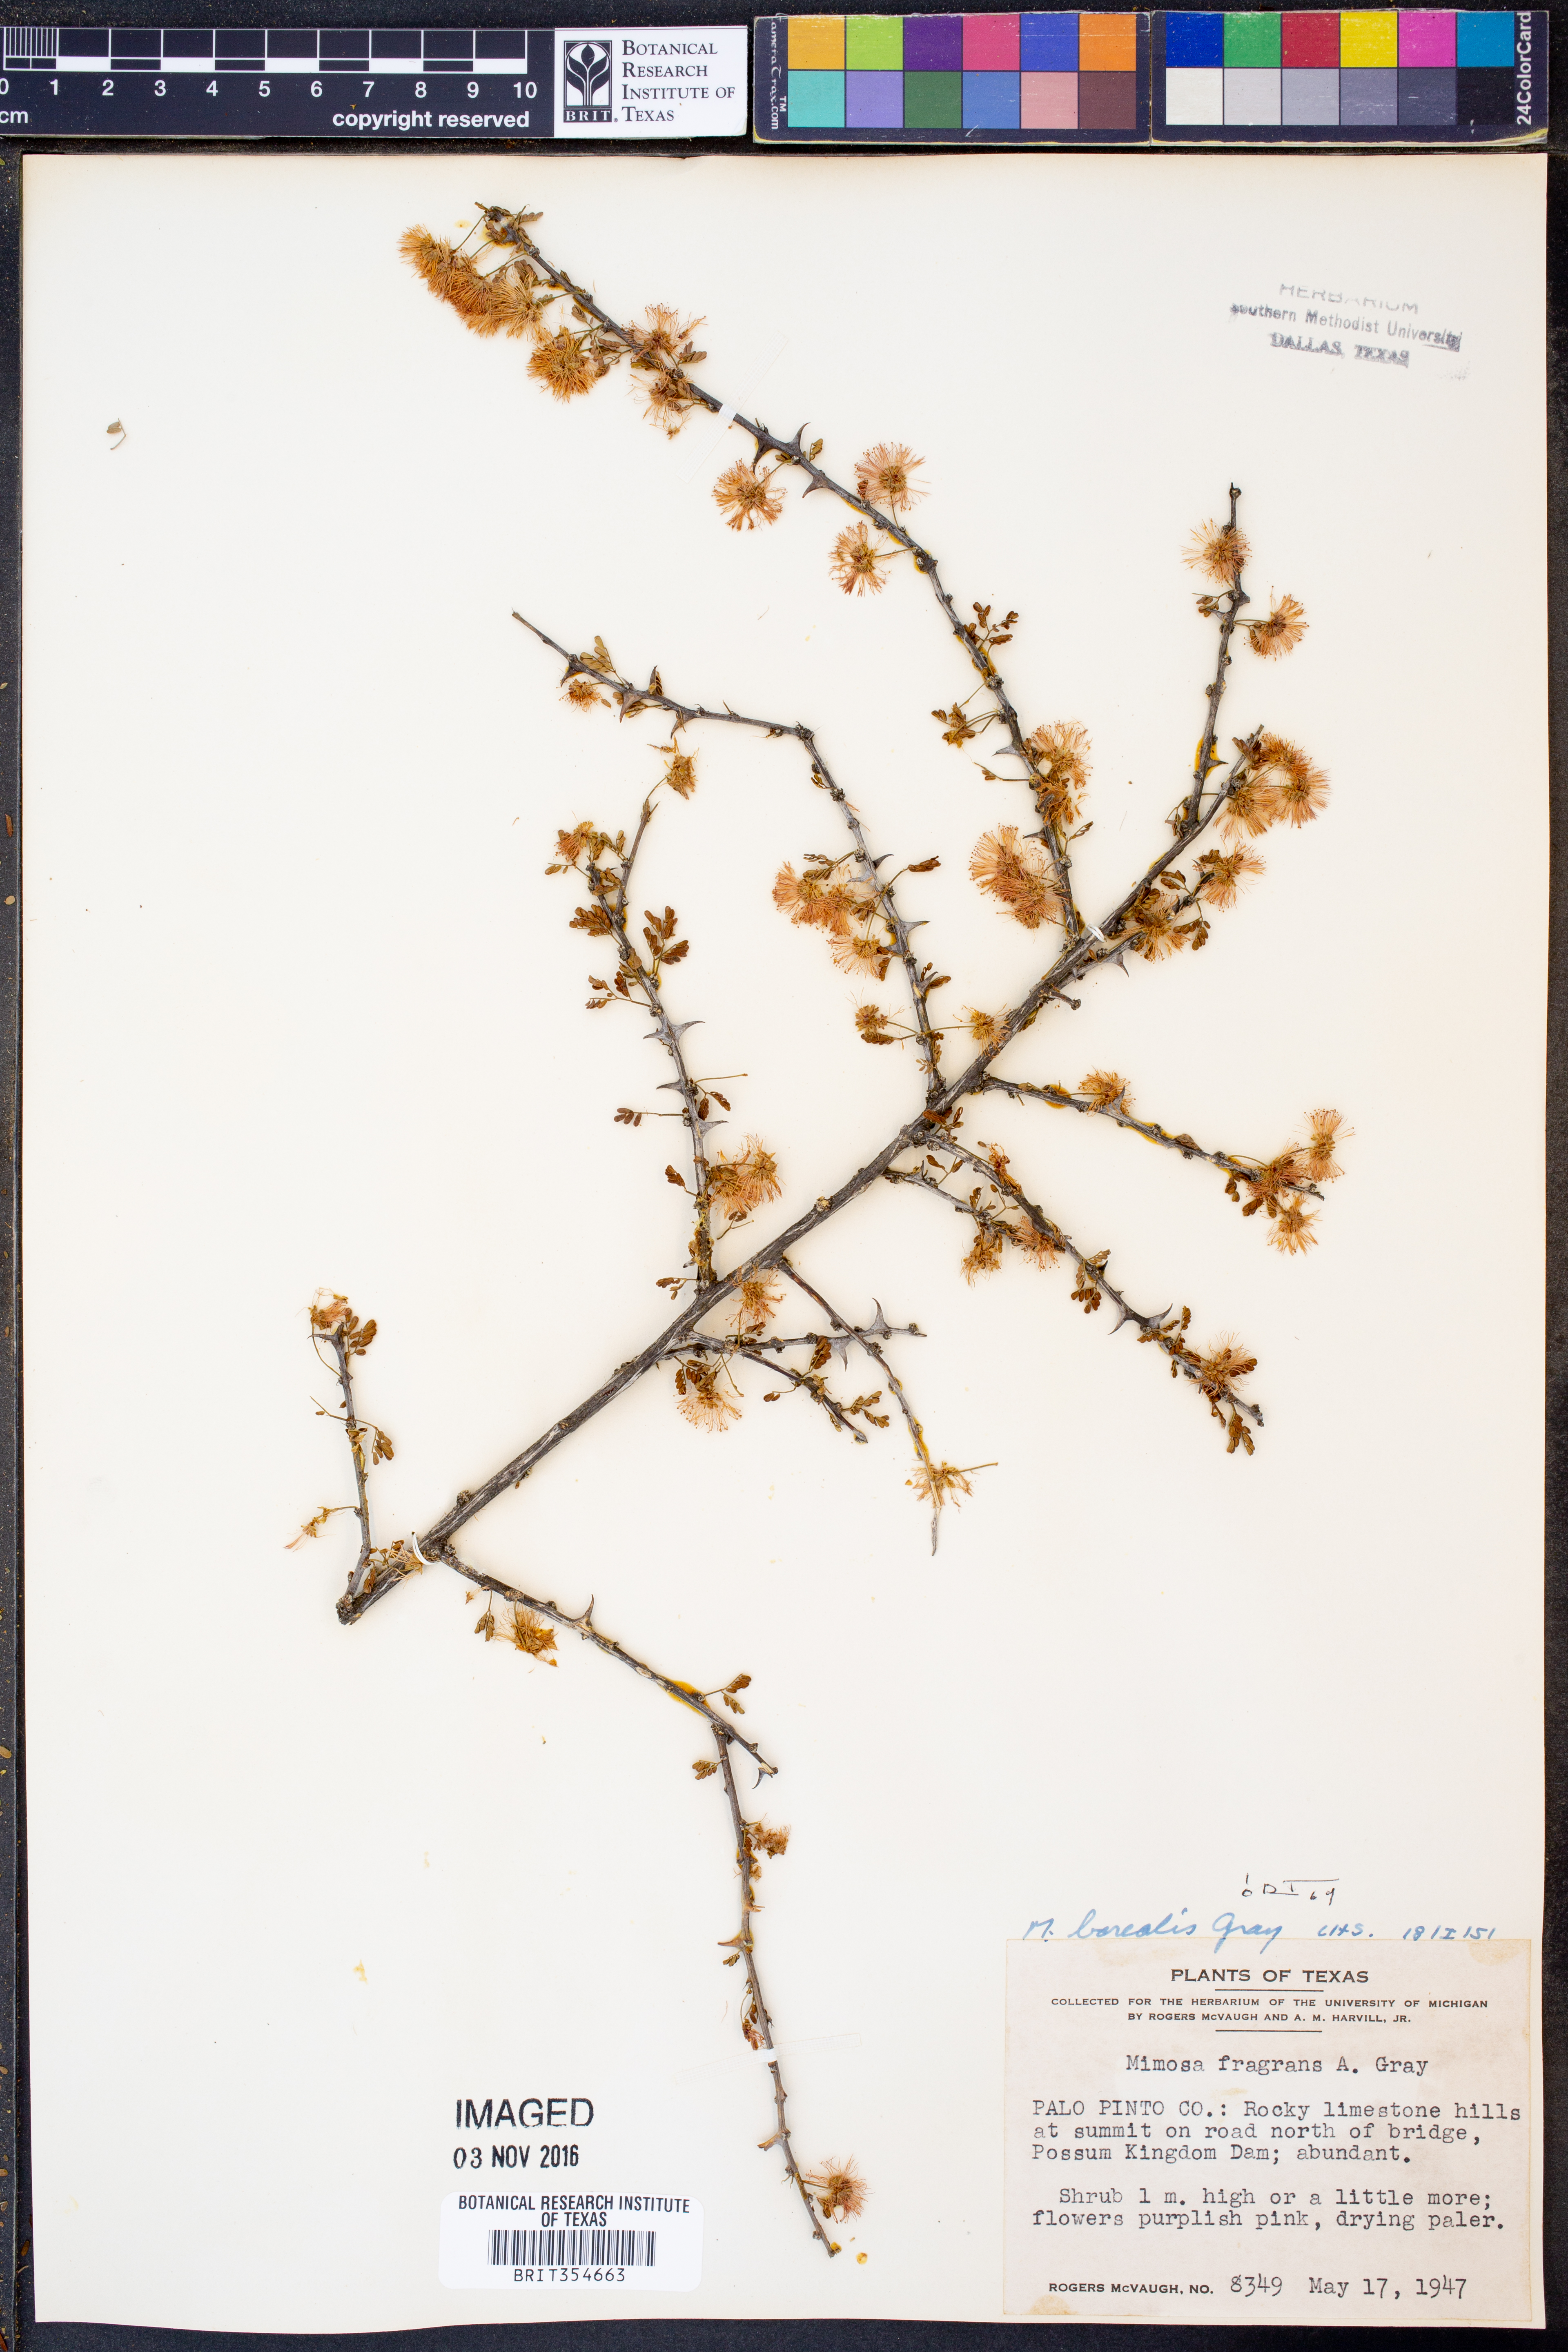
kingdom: Plantae
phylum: Tracheophyta
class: Magnoliopsida
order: Fabales
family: Fabaceae
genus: Mimosa
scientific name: Mimosa borealis
